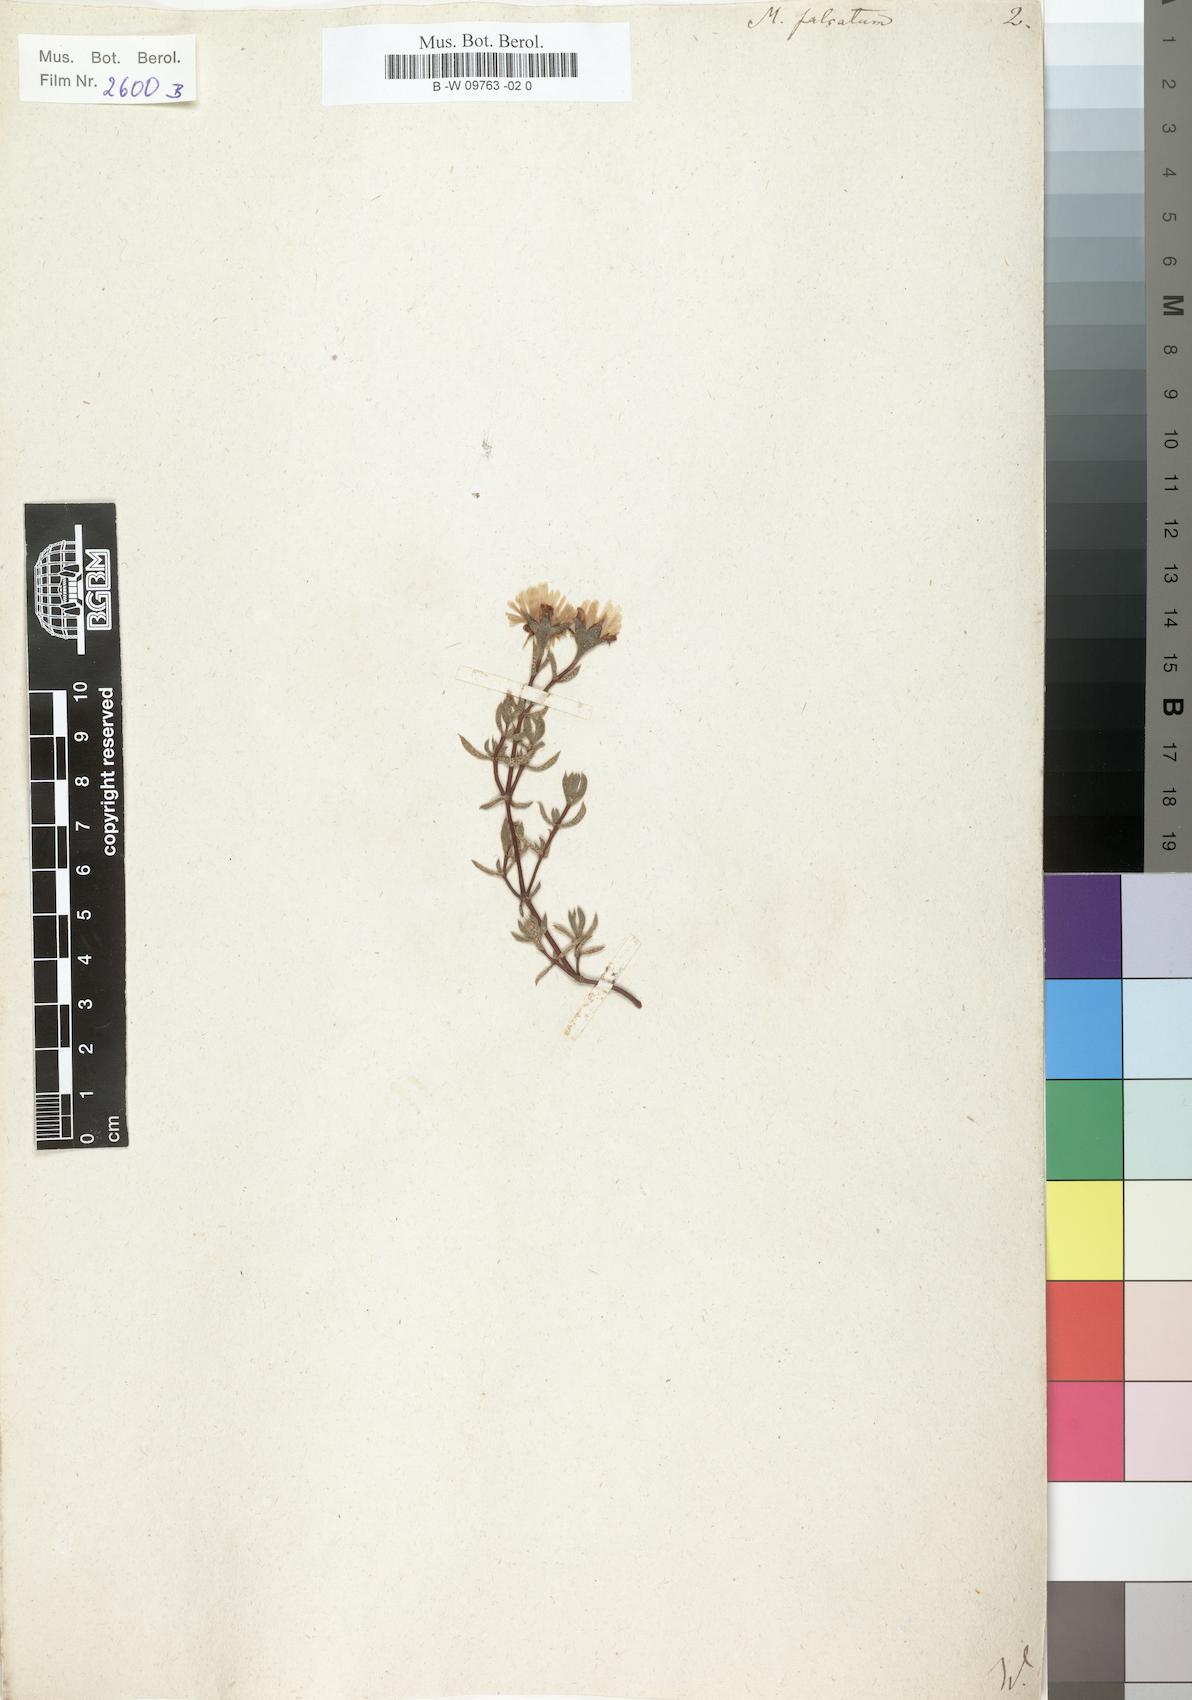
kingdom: Plantae
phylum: Tracheophyta
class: Magnoliopsida
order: Caryophyllales
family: Aizoaceae
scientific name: Aizoaceae
